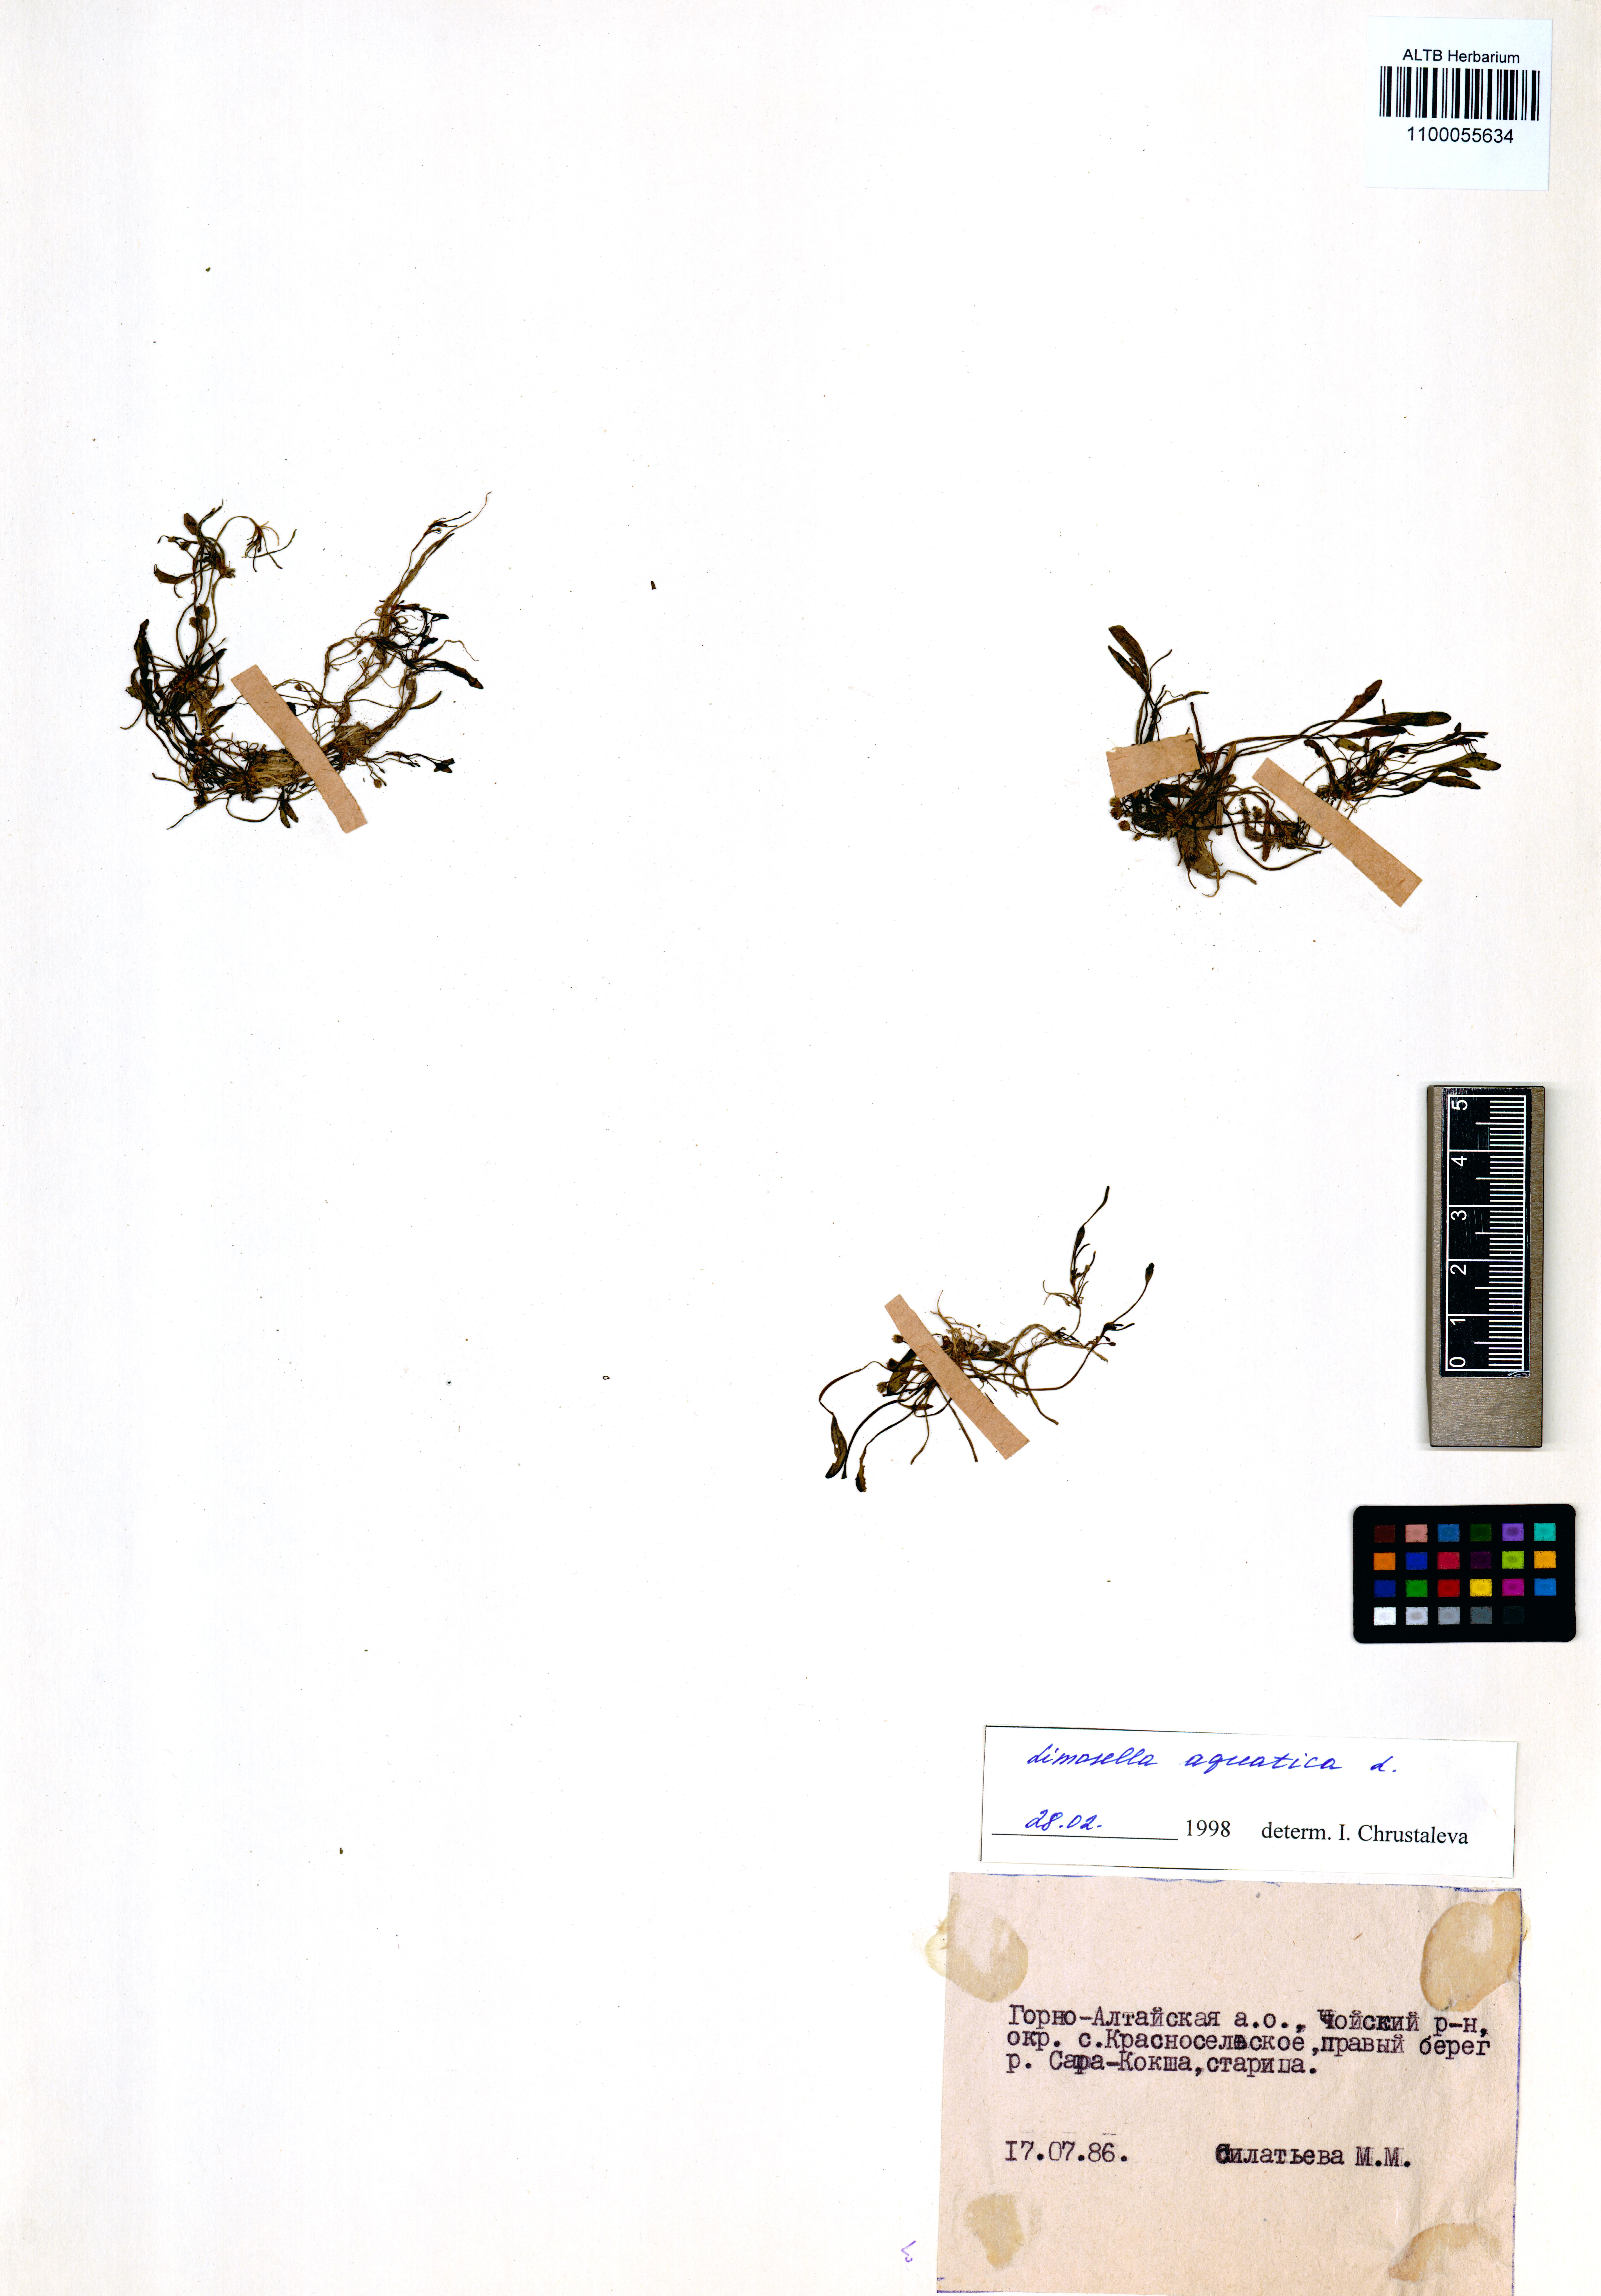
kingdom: Plantae
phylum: Tracheophyta
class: Magnoliopsida
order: Lamiales
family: Scrophulariaceae
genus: Limosella
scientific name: Limosella aquatica
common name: Mudwort
